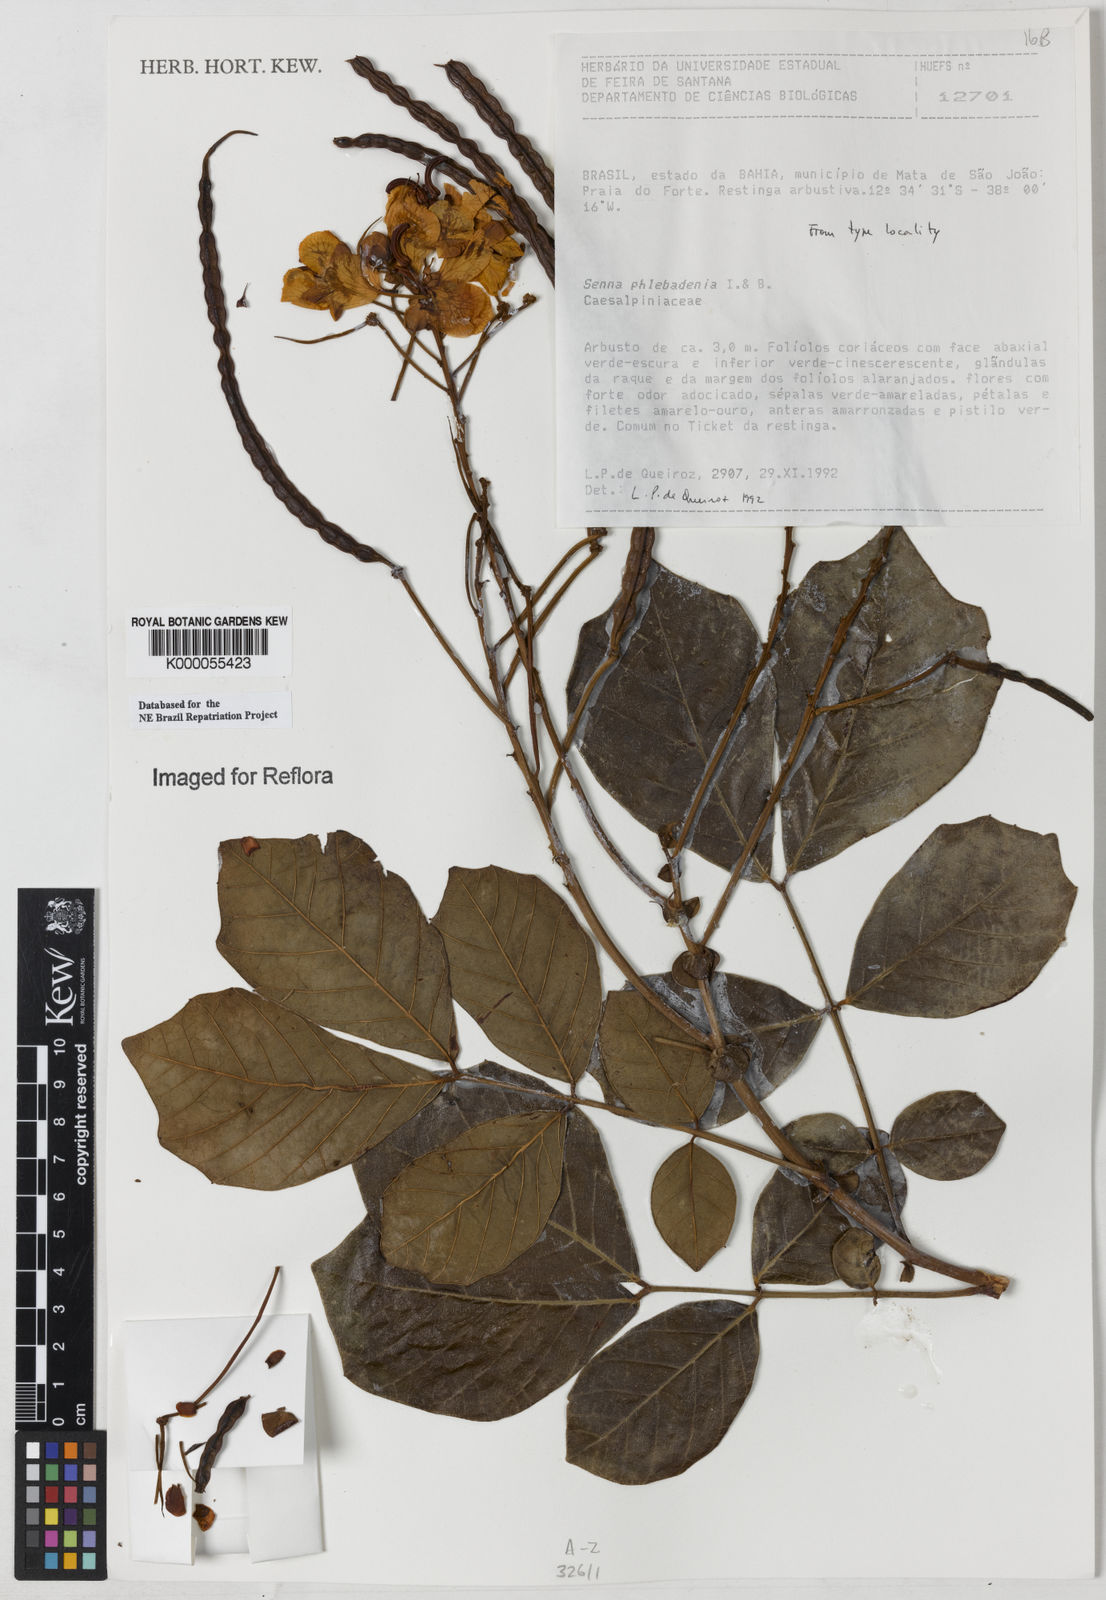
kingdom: Plantae
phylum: Tracheophyta
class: Magnoliopsida
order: Fabales
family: Fabaceae
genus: Senna
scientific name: Senna phlebadenia
